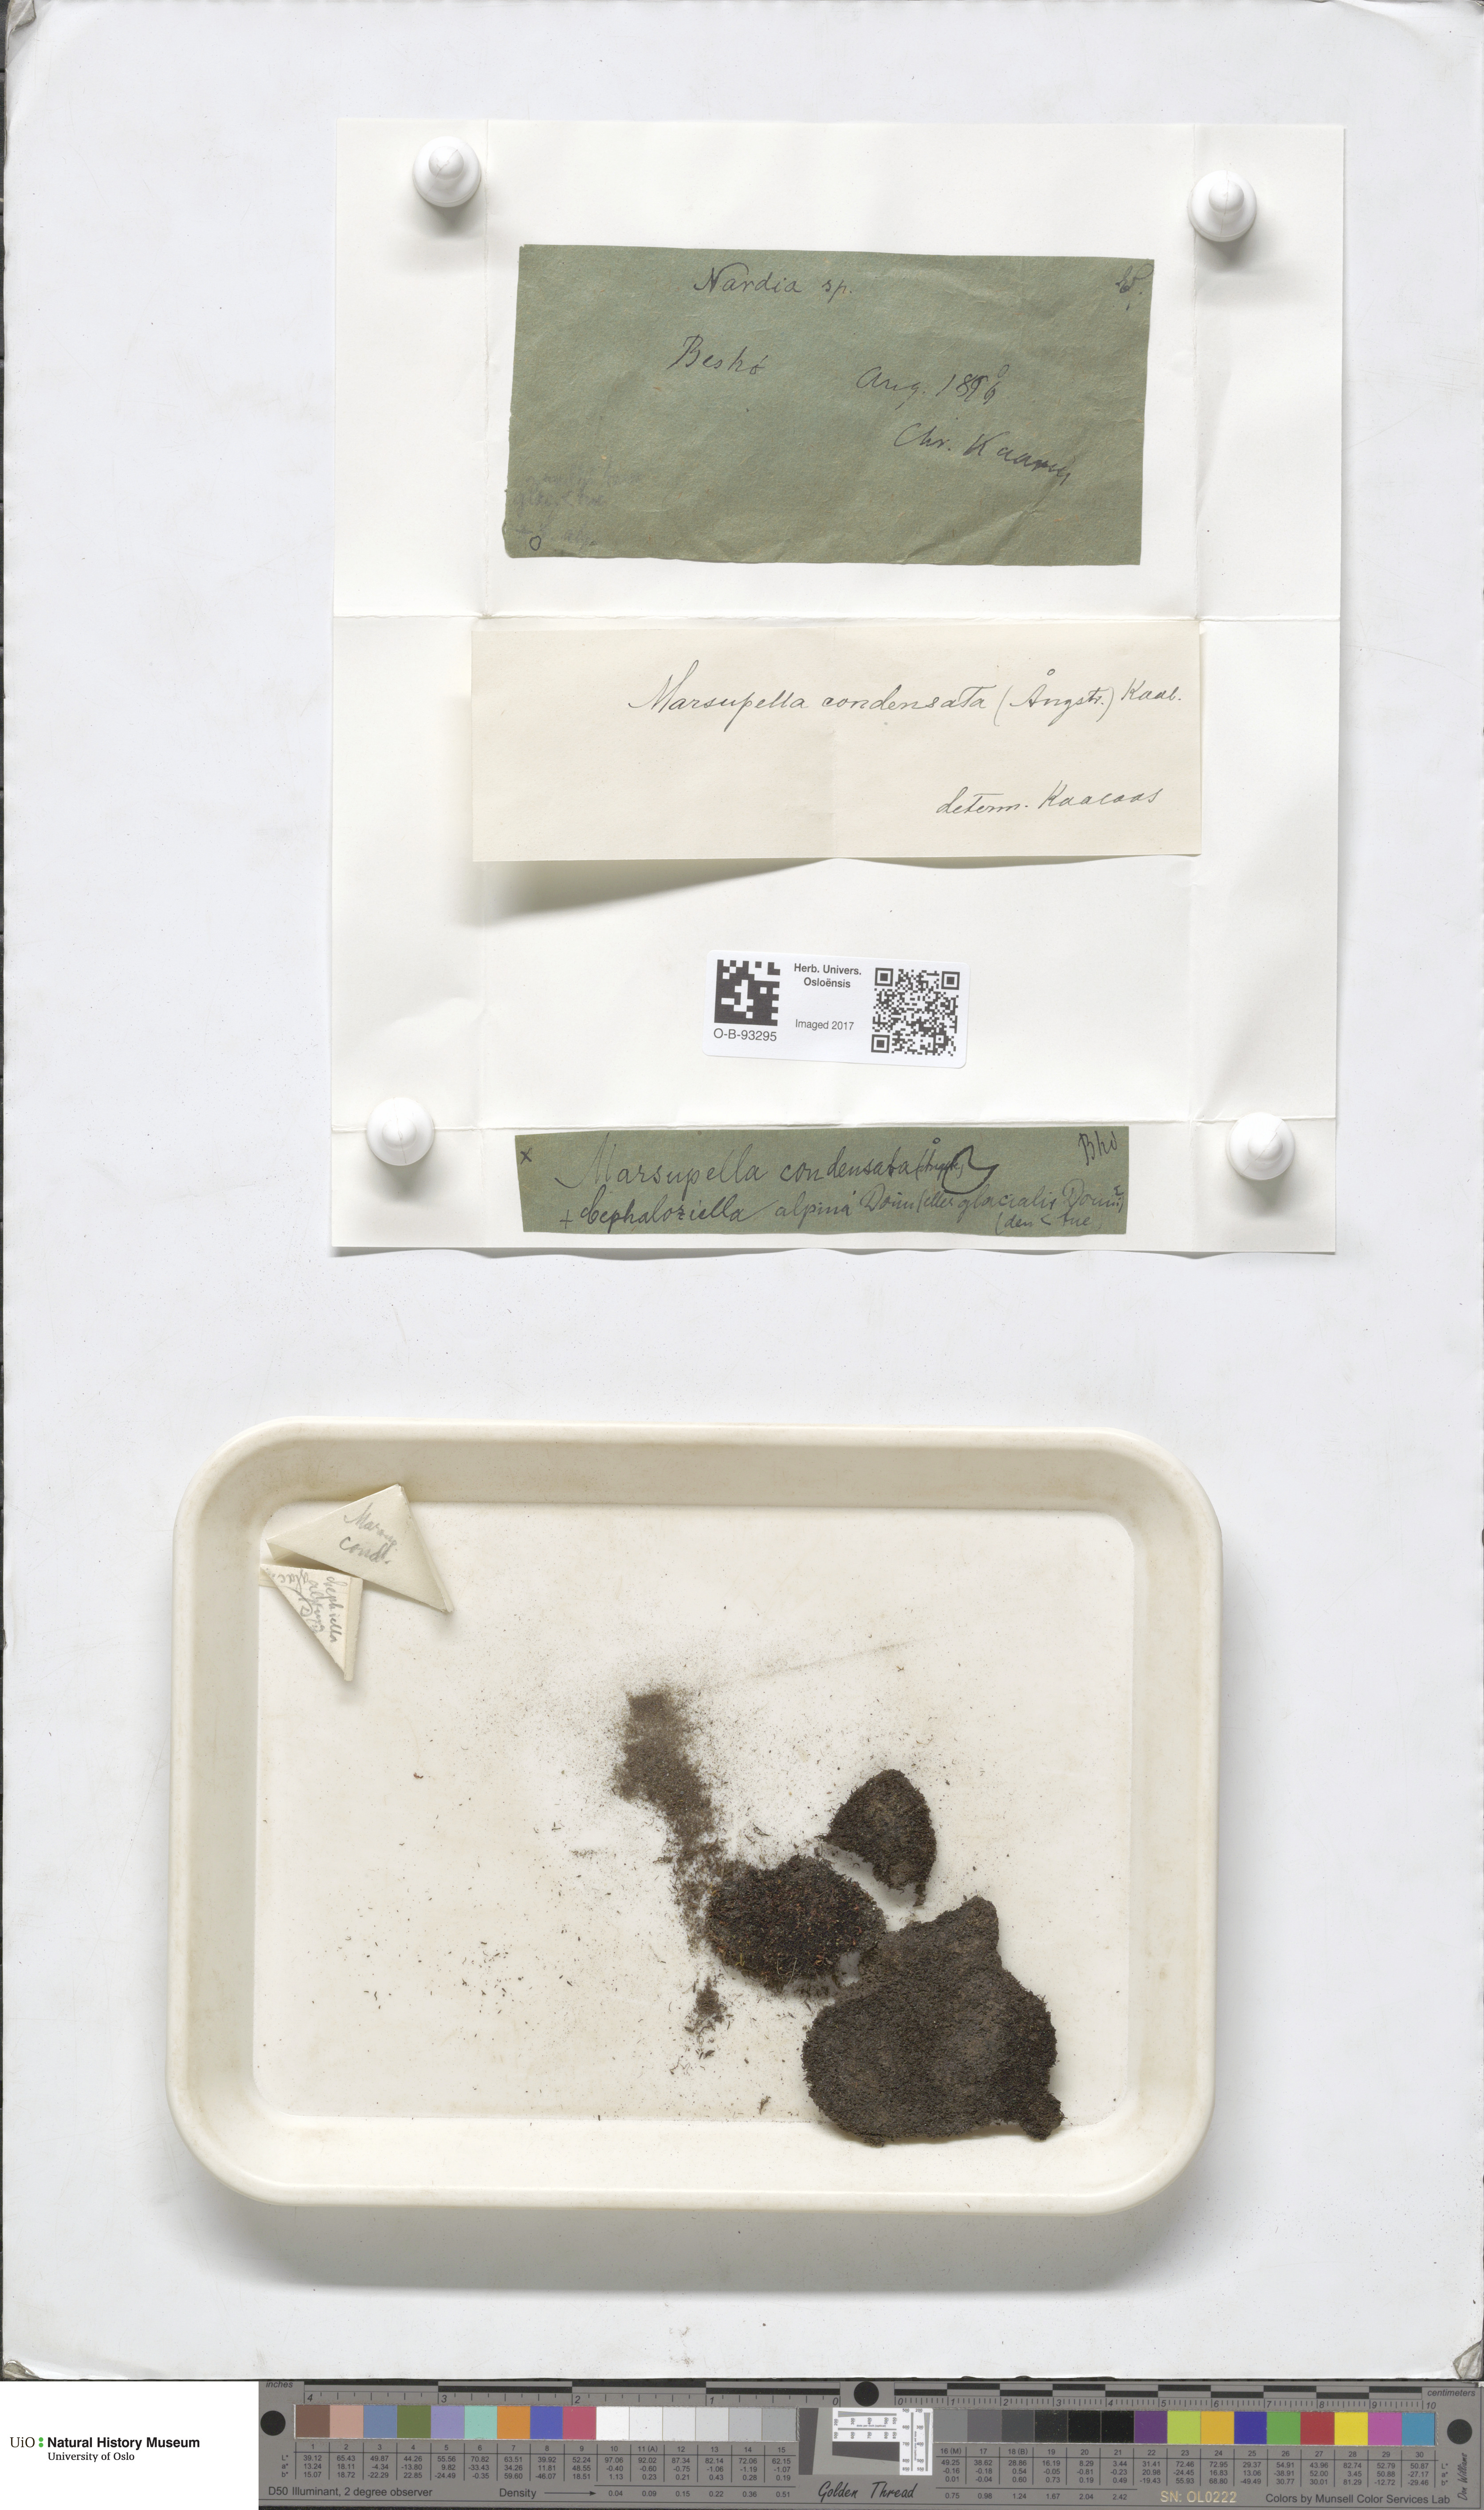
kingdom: Plantae
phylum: Marchantiophyta
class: Jungermanniopsida
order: Jungermanniales
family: Gymnomitriaceae
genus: Gymnomitrion
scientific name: Gymnomitrion brevissimum
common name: Snow rustwort
